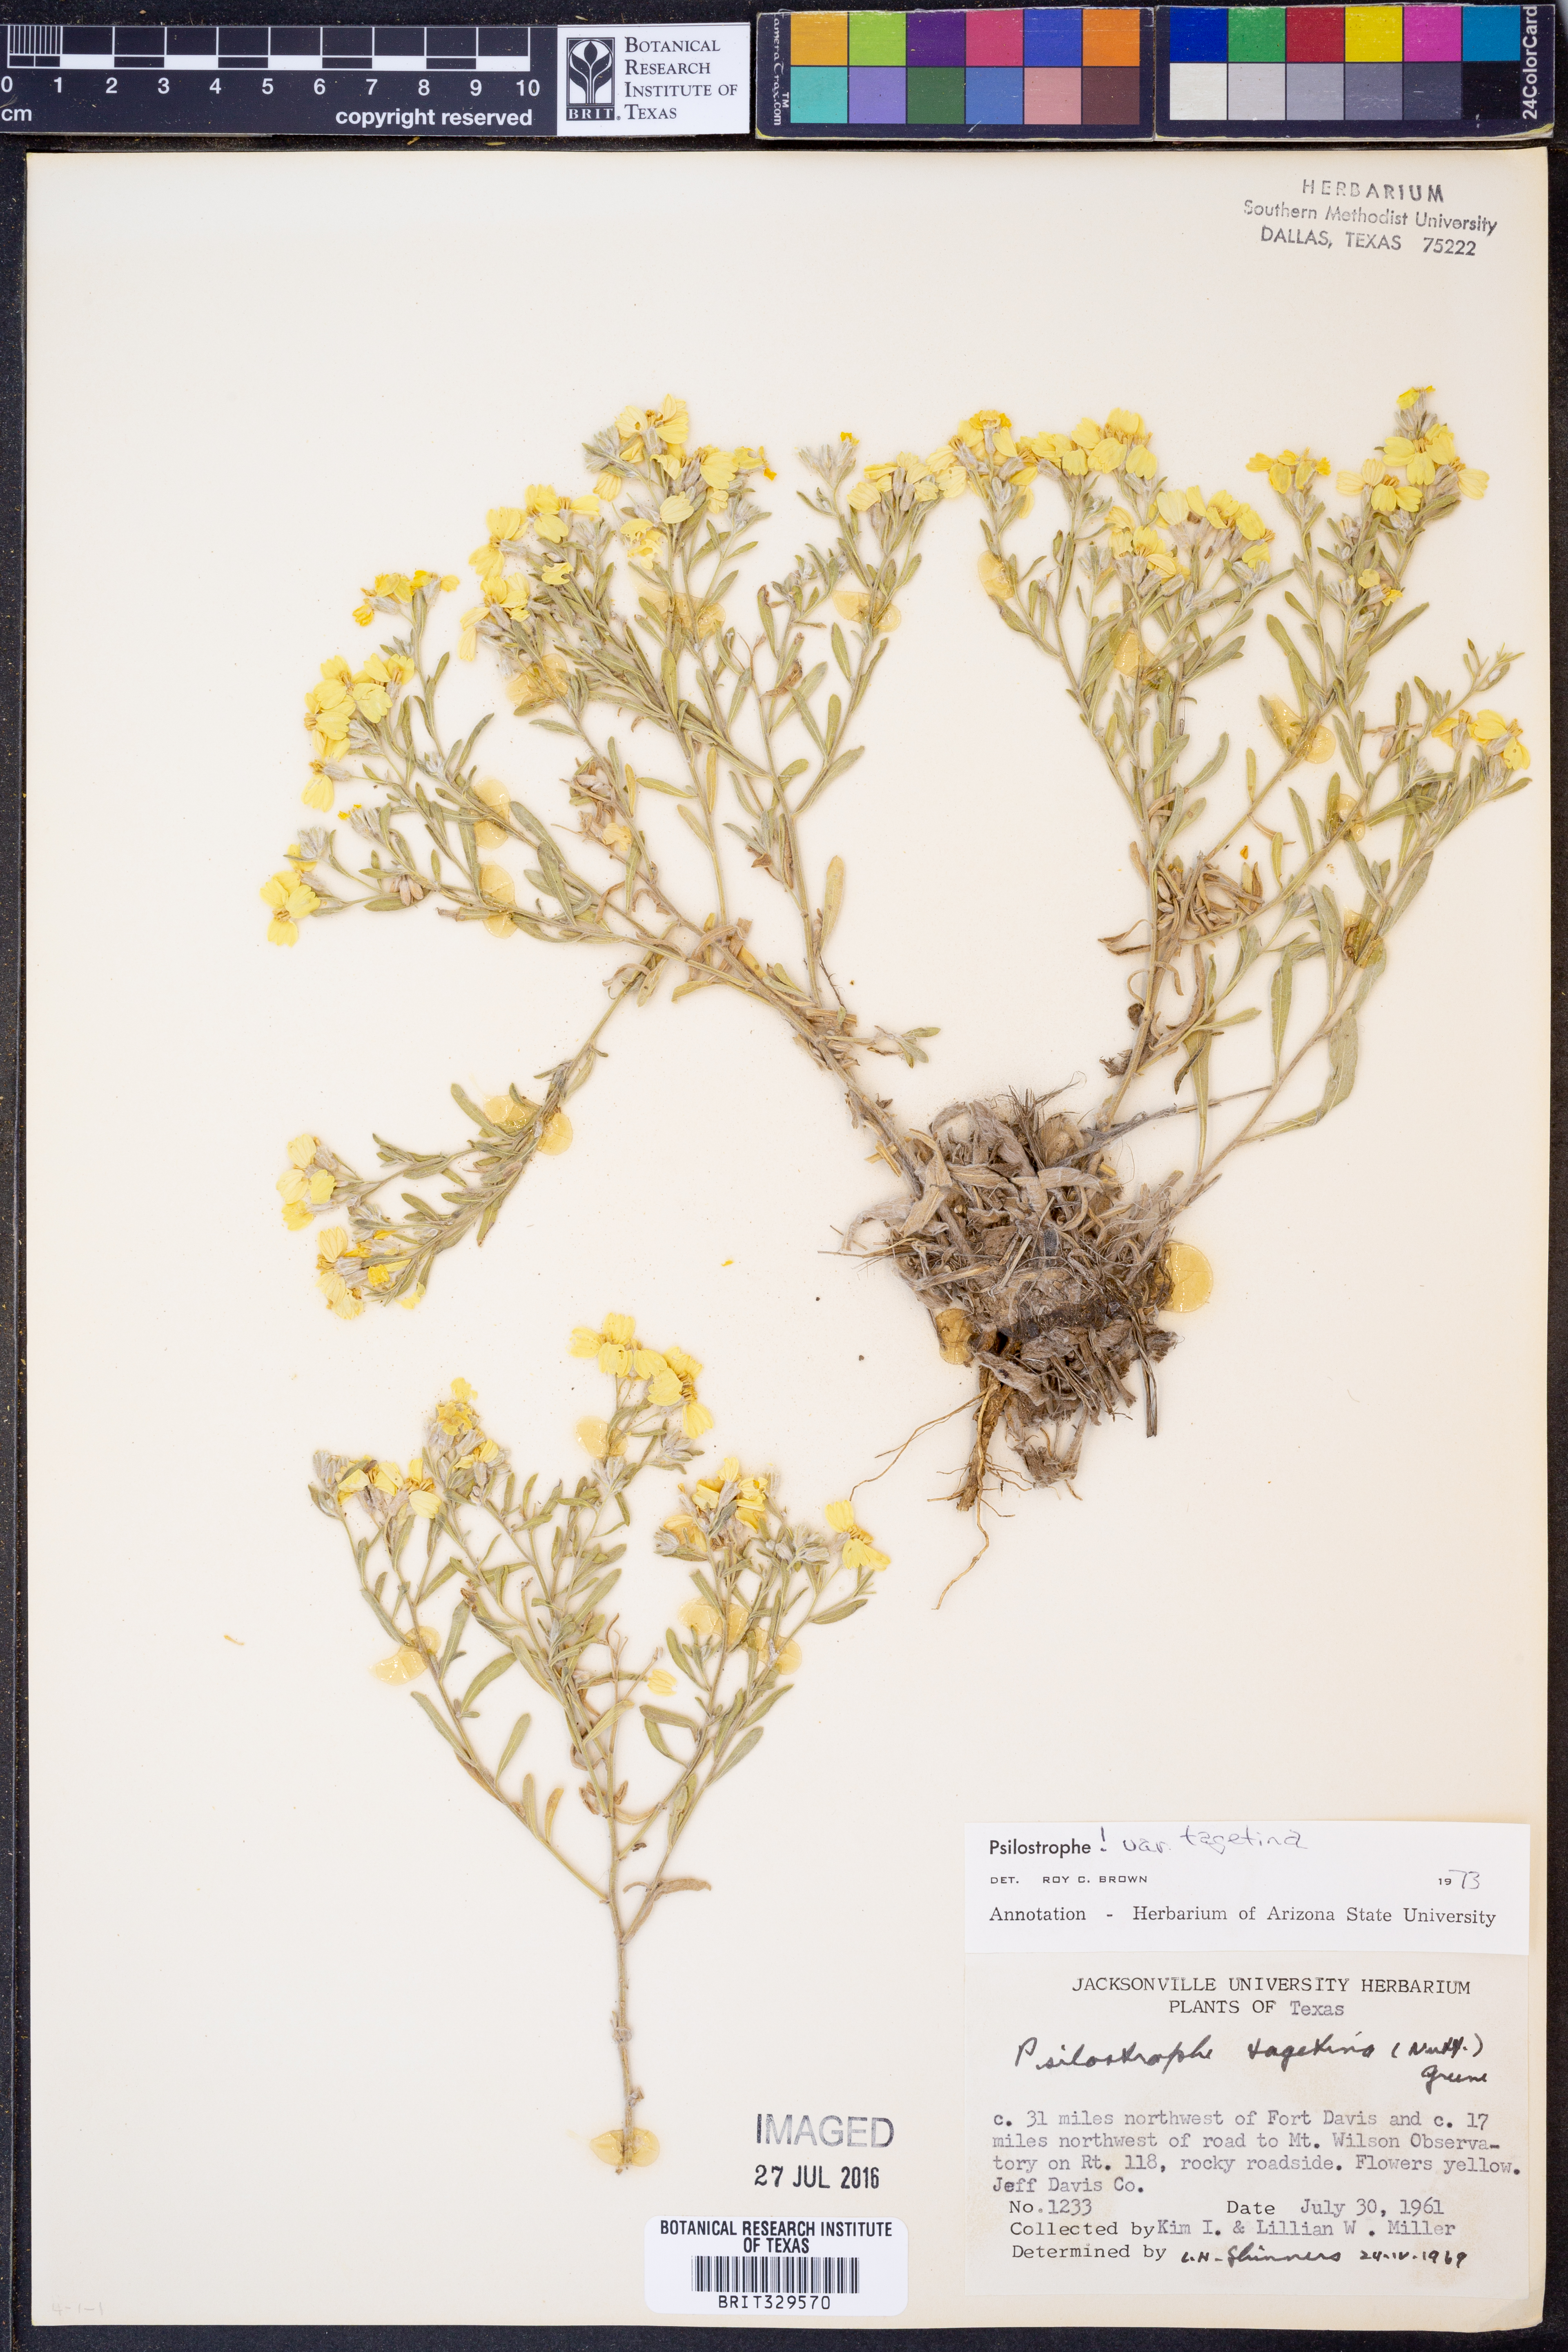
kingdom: Plantae
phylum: Tracheophyta
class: Magnoliopsida
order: Asterales
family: Asteraceae
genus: Psilostrophe
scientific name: Psilostrophe tagetina
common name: Marigold paper-flower
